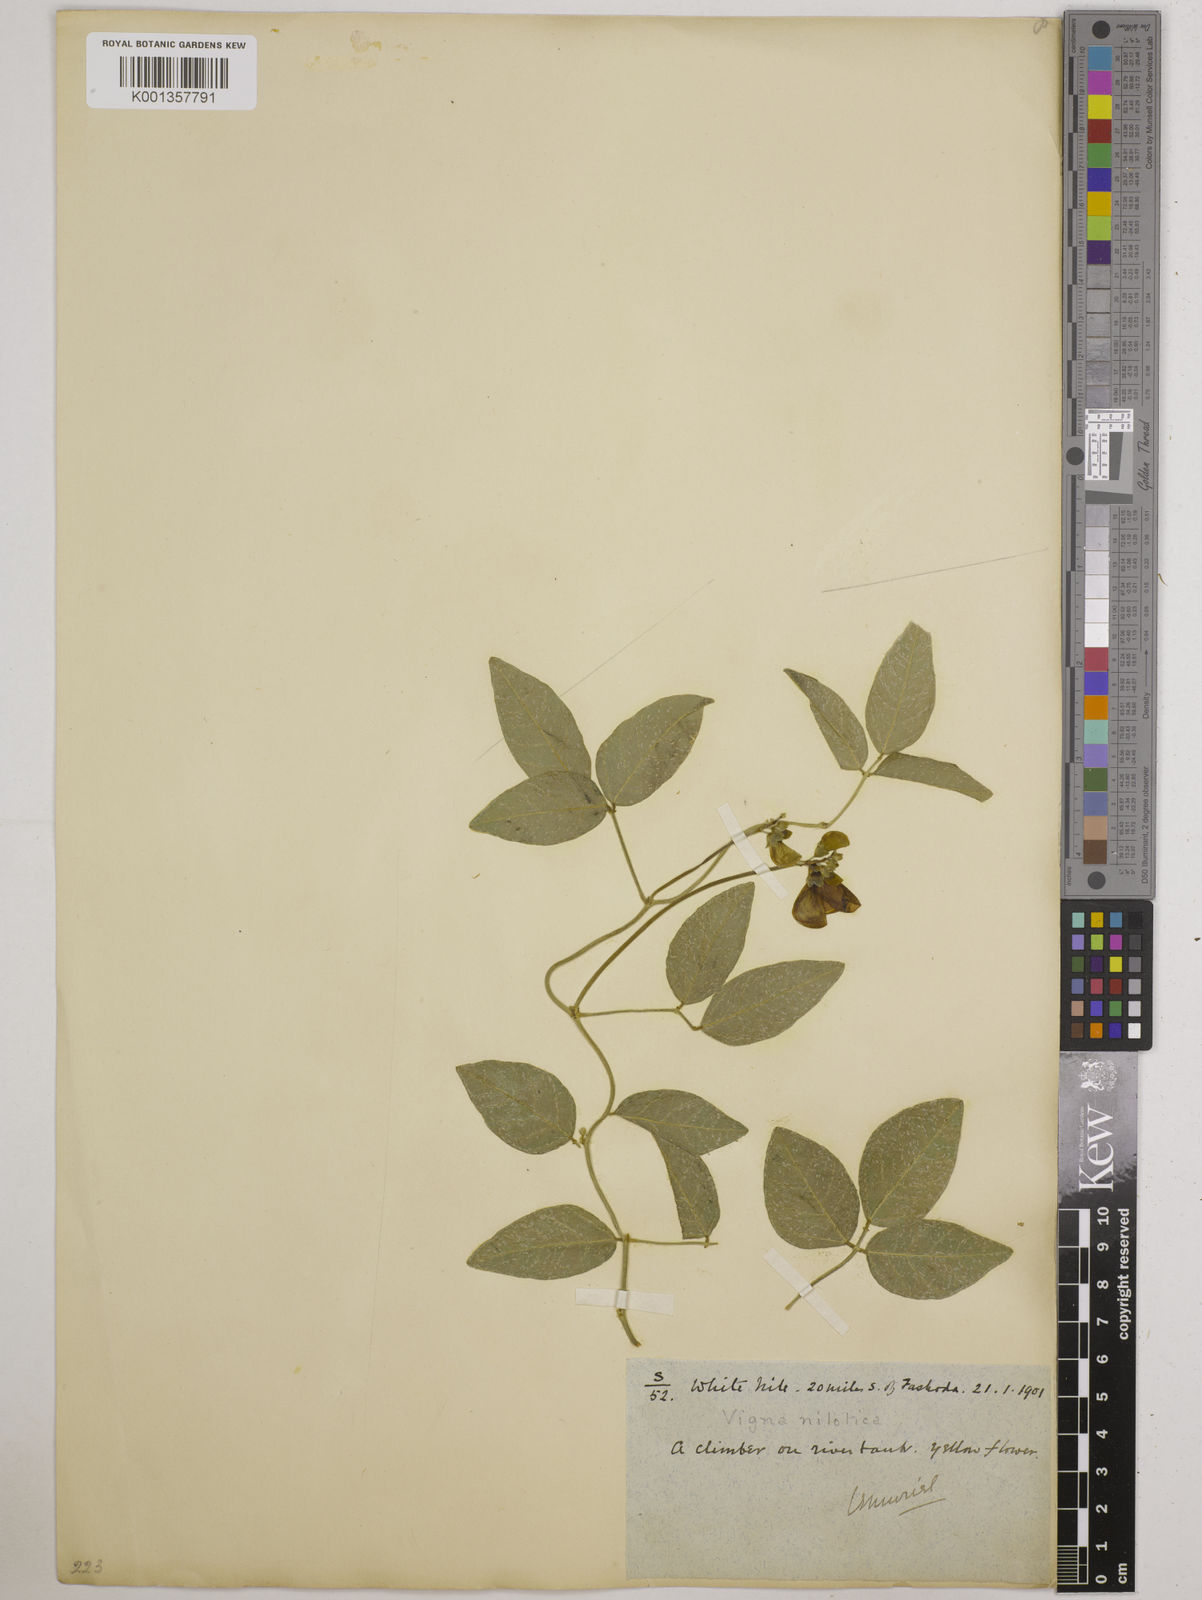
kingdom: Plantae
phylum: Tracheophyta
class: Magnoliopsida
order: Fabales
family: Fabaceae
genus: Vigna
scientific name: Vigna luteola
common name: Hairypod cowpea
